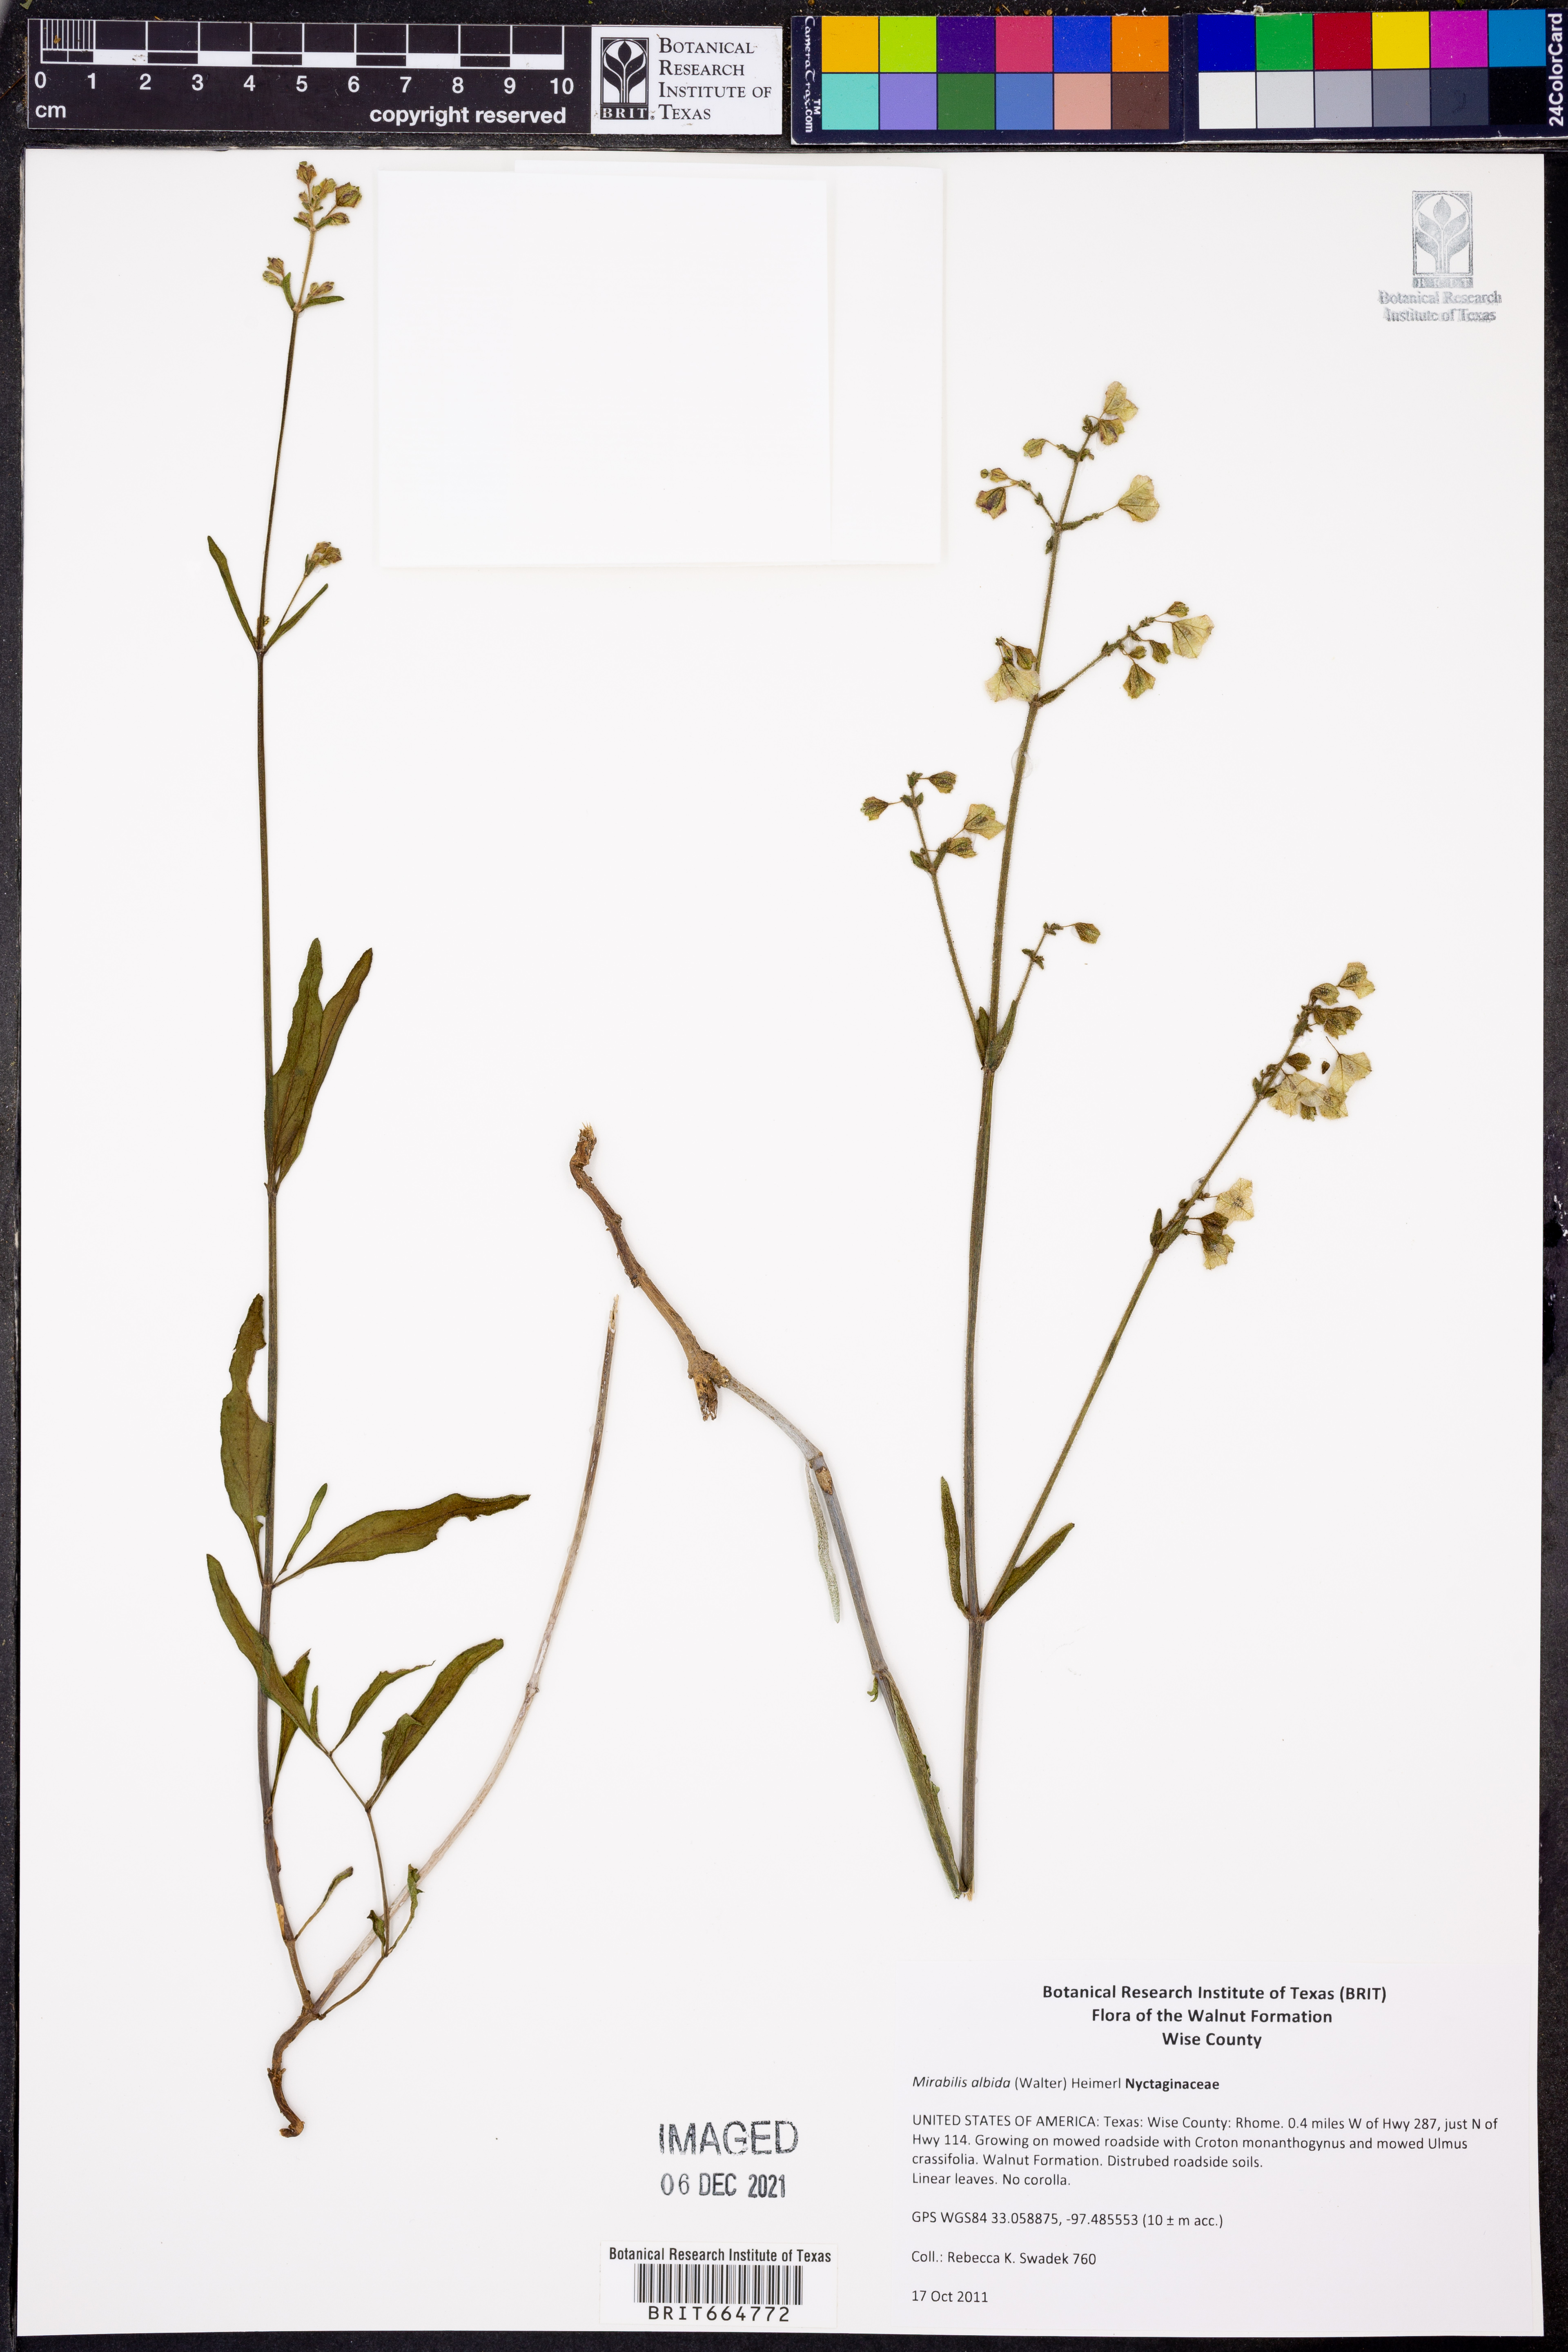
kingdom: Plantae
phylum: Tracheophyta
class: Magnoliopsida
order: Caryophyllales
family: Nyctaginaceae
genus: Mirabilis
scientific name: Mirabilis albida
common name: Hairy four-o'clock
